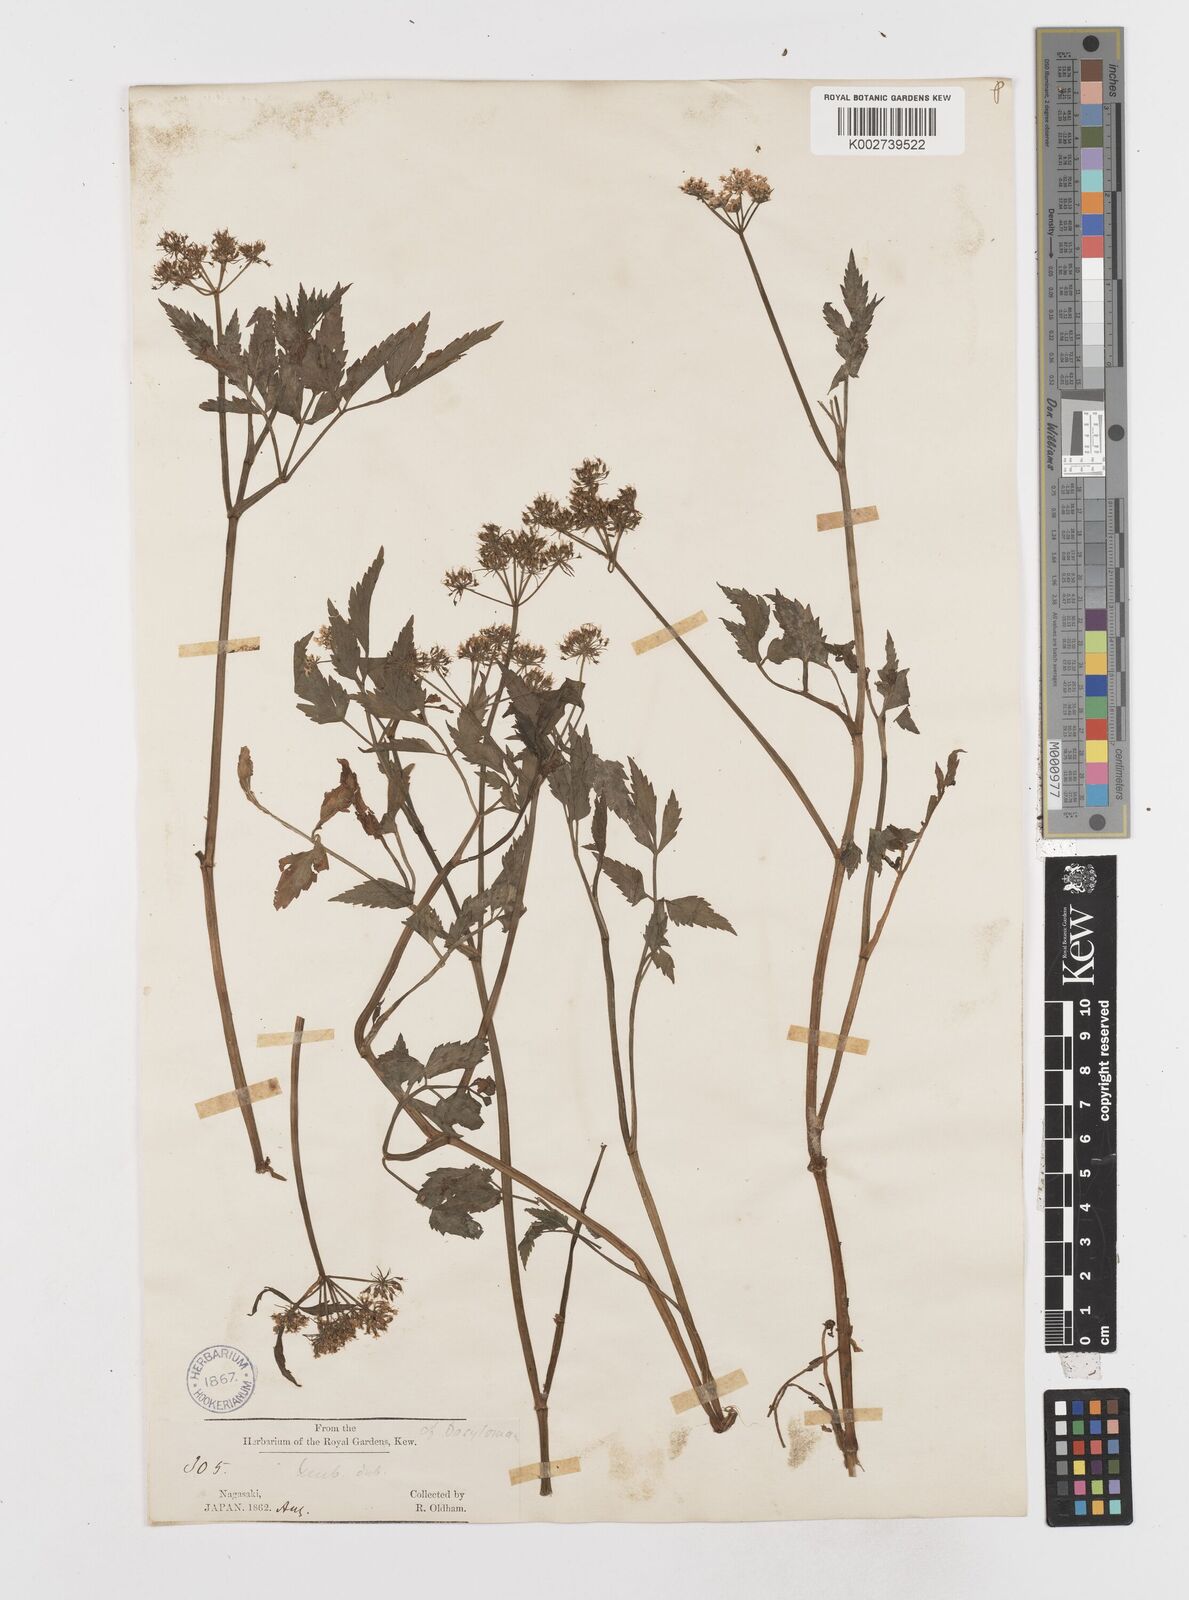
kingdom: Plantae
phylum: Tracheophyta
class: Magnoliopsida
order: Apiales
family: Apiaceae
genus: Oenanthe
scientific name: Oenanthe javanica
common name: Java water-dropwort
